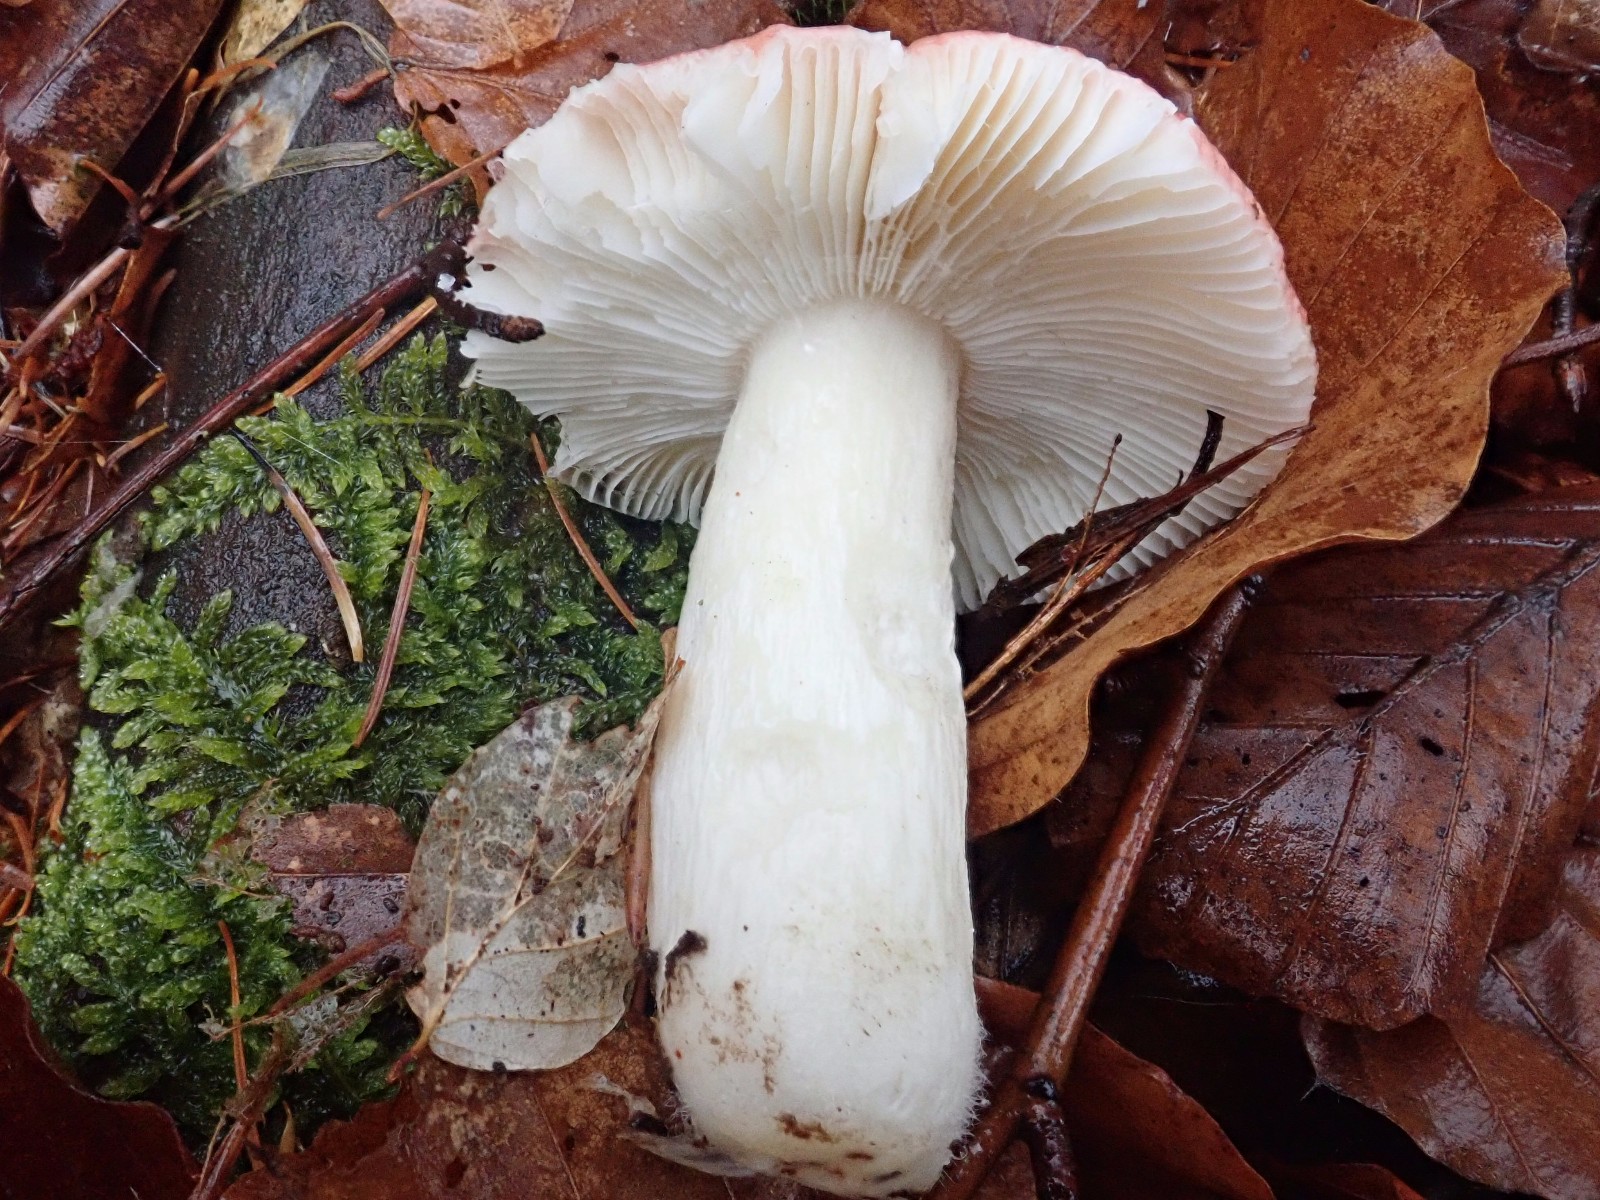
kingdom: Fungi
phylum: Basidiomycota
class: Agaricomycetes
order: Russulales
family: Russulaceae
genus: Russula
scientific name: Russula nobilis
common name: lille gift-skørhat
